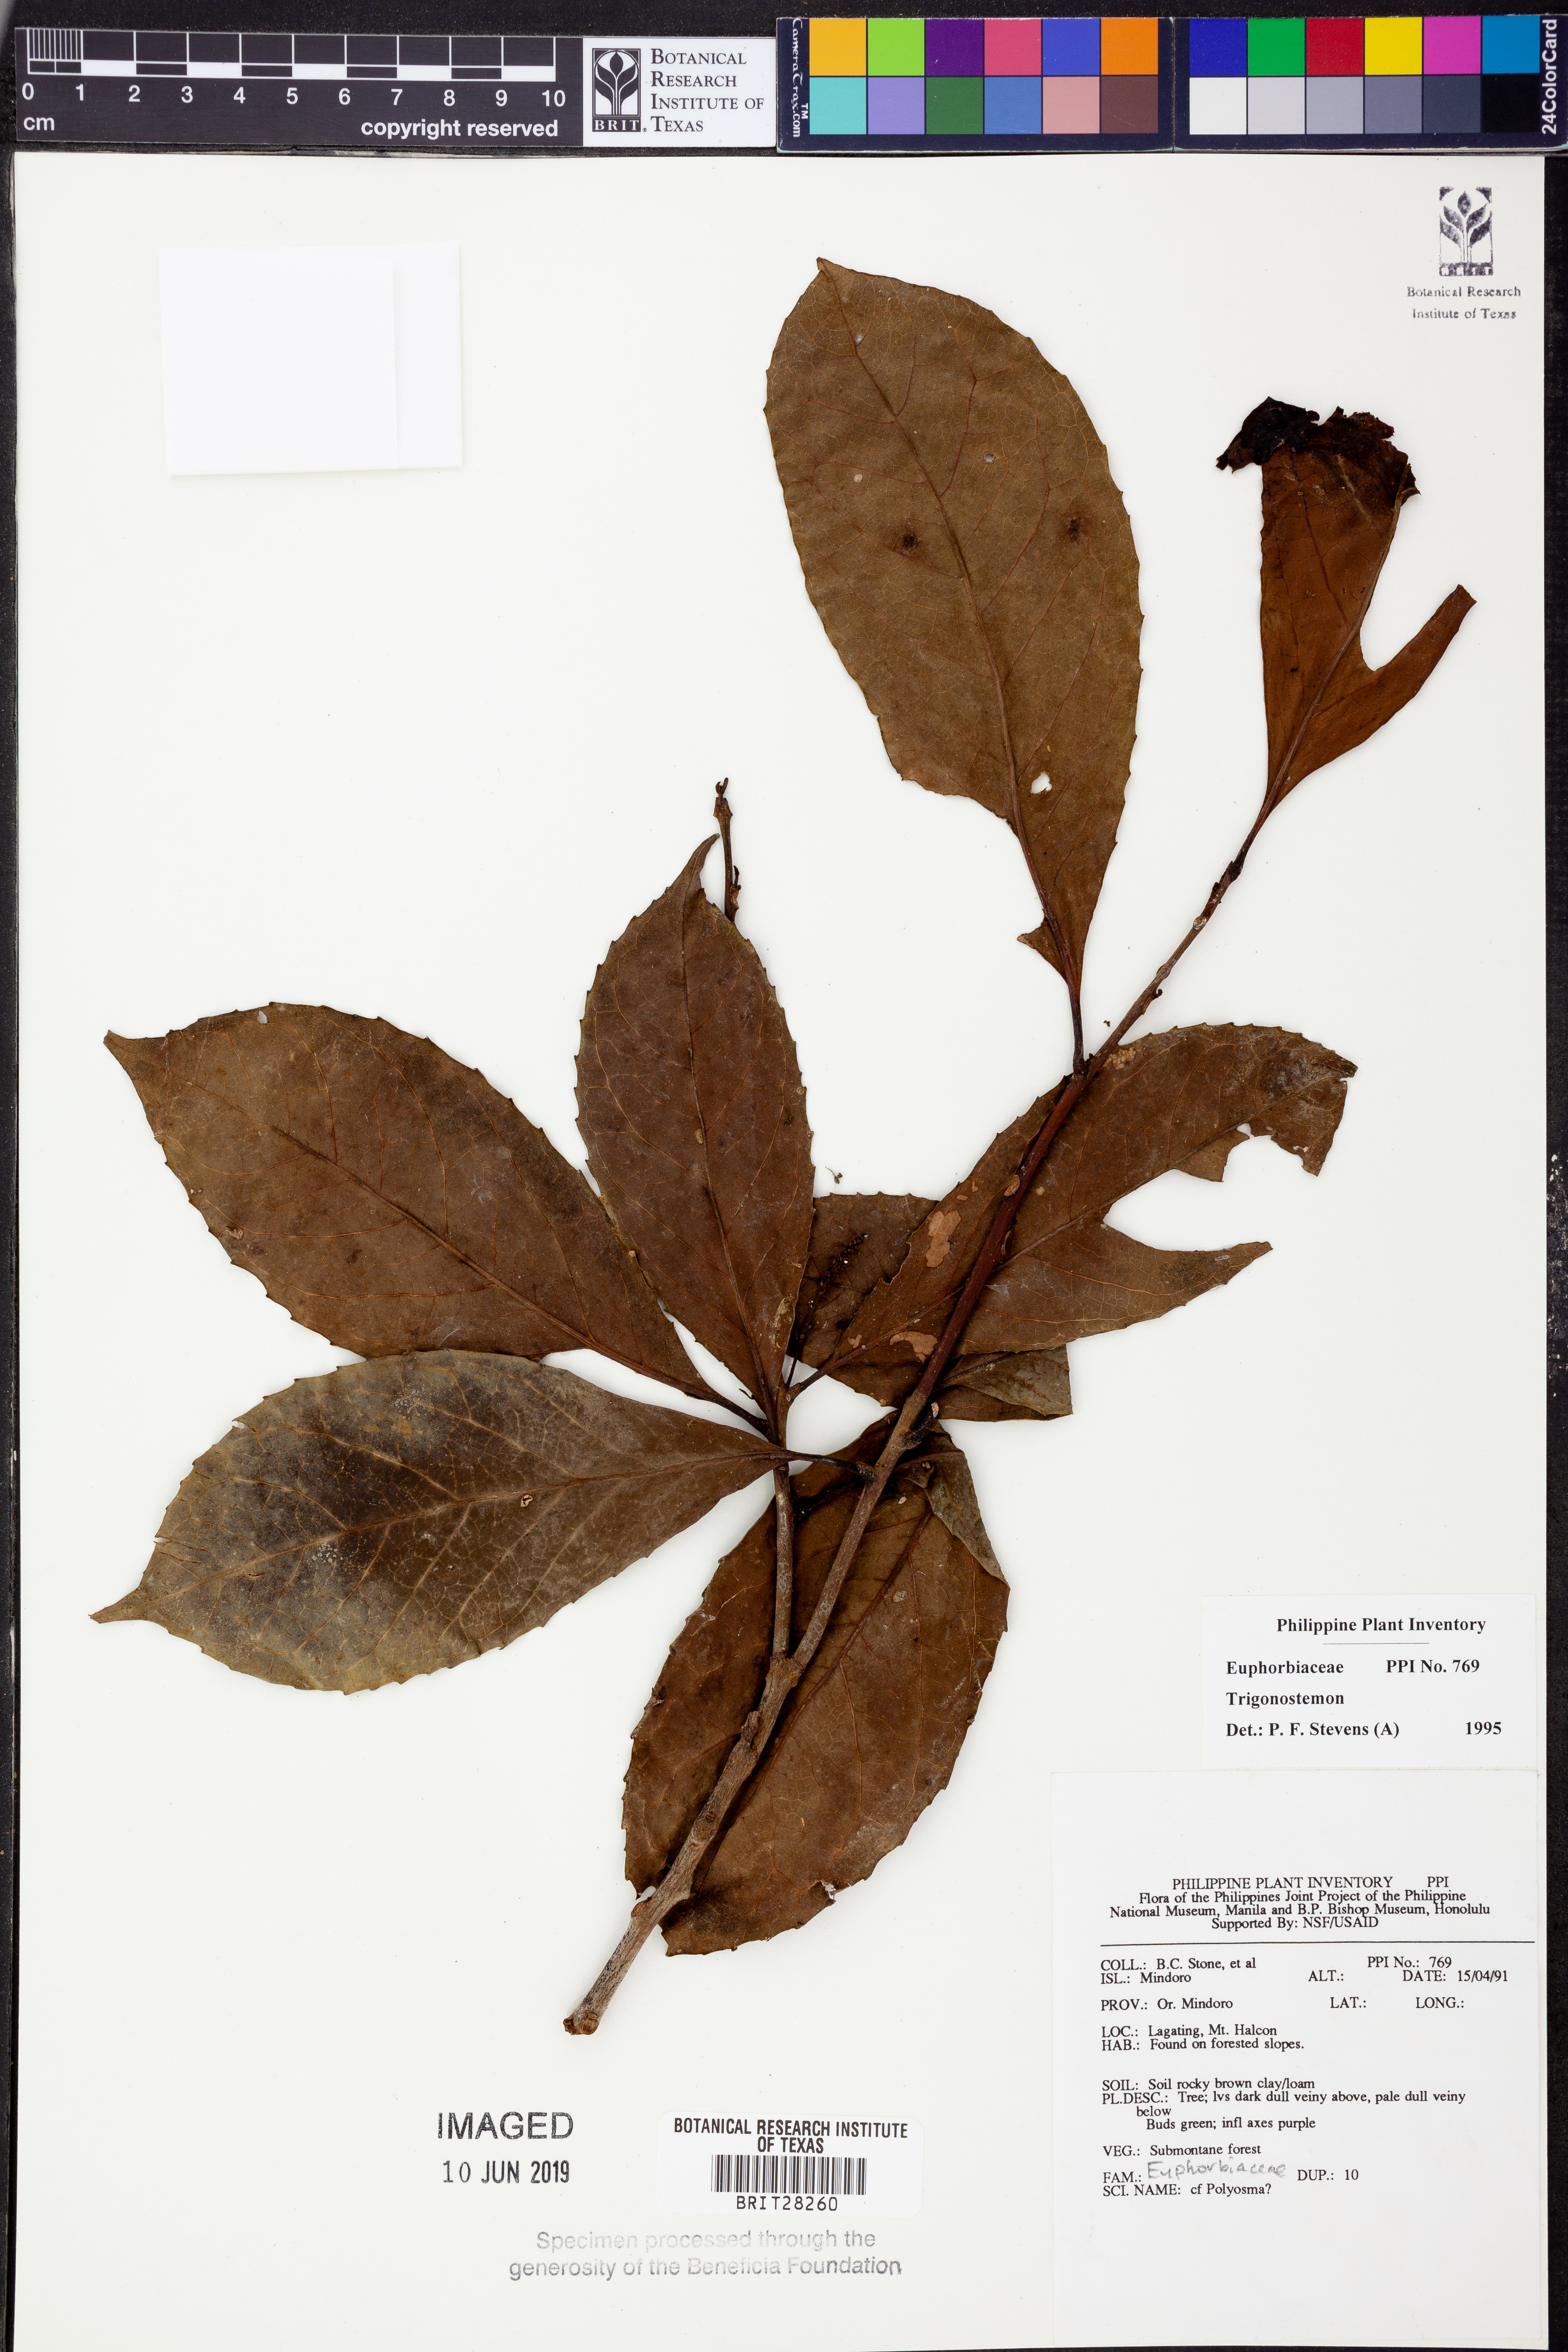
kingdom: Plantae
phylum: Tracheophyta
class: Magnoliopsida
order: Malpighiales
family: Euphorbiaceae
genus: Trigonostemon
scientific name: Trigonostemon
